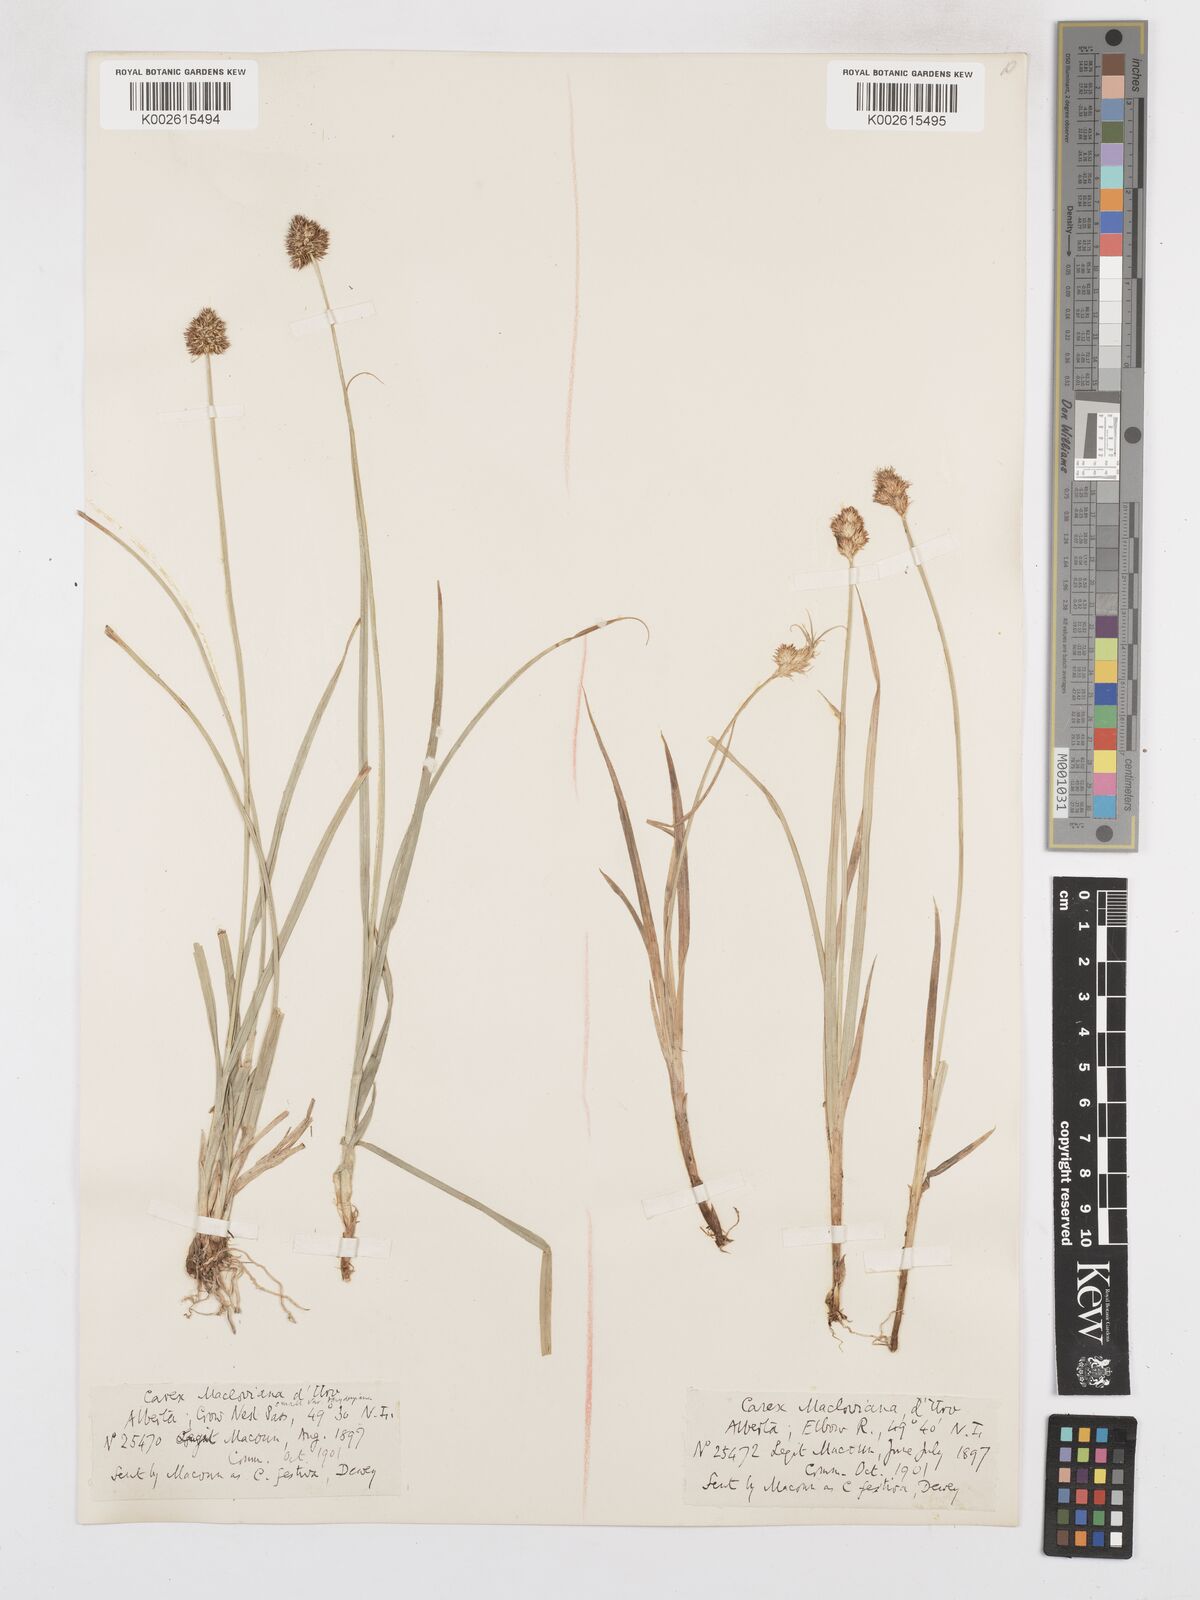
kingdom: Plantae
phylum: Tracheophyta
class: Liliopsida
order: Poales
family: Cyperaceae
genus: Carex
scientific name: Carex macloviana
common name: Falkland island sedge
